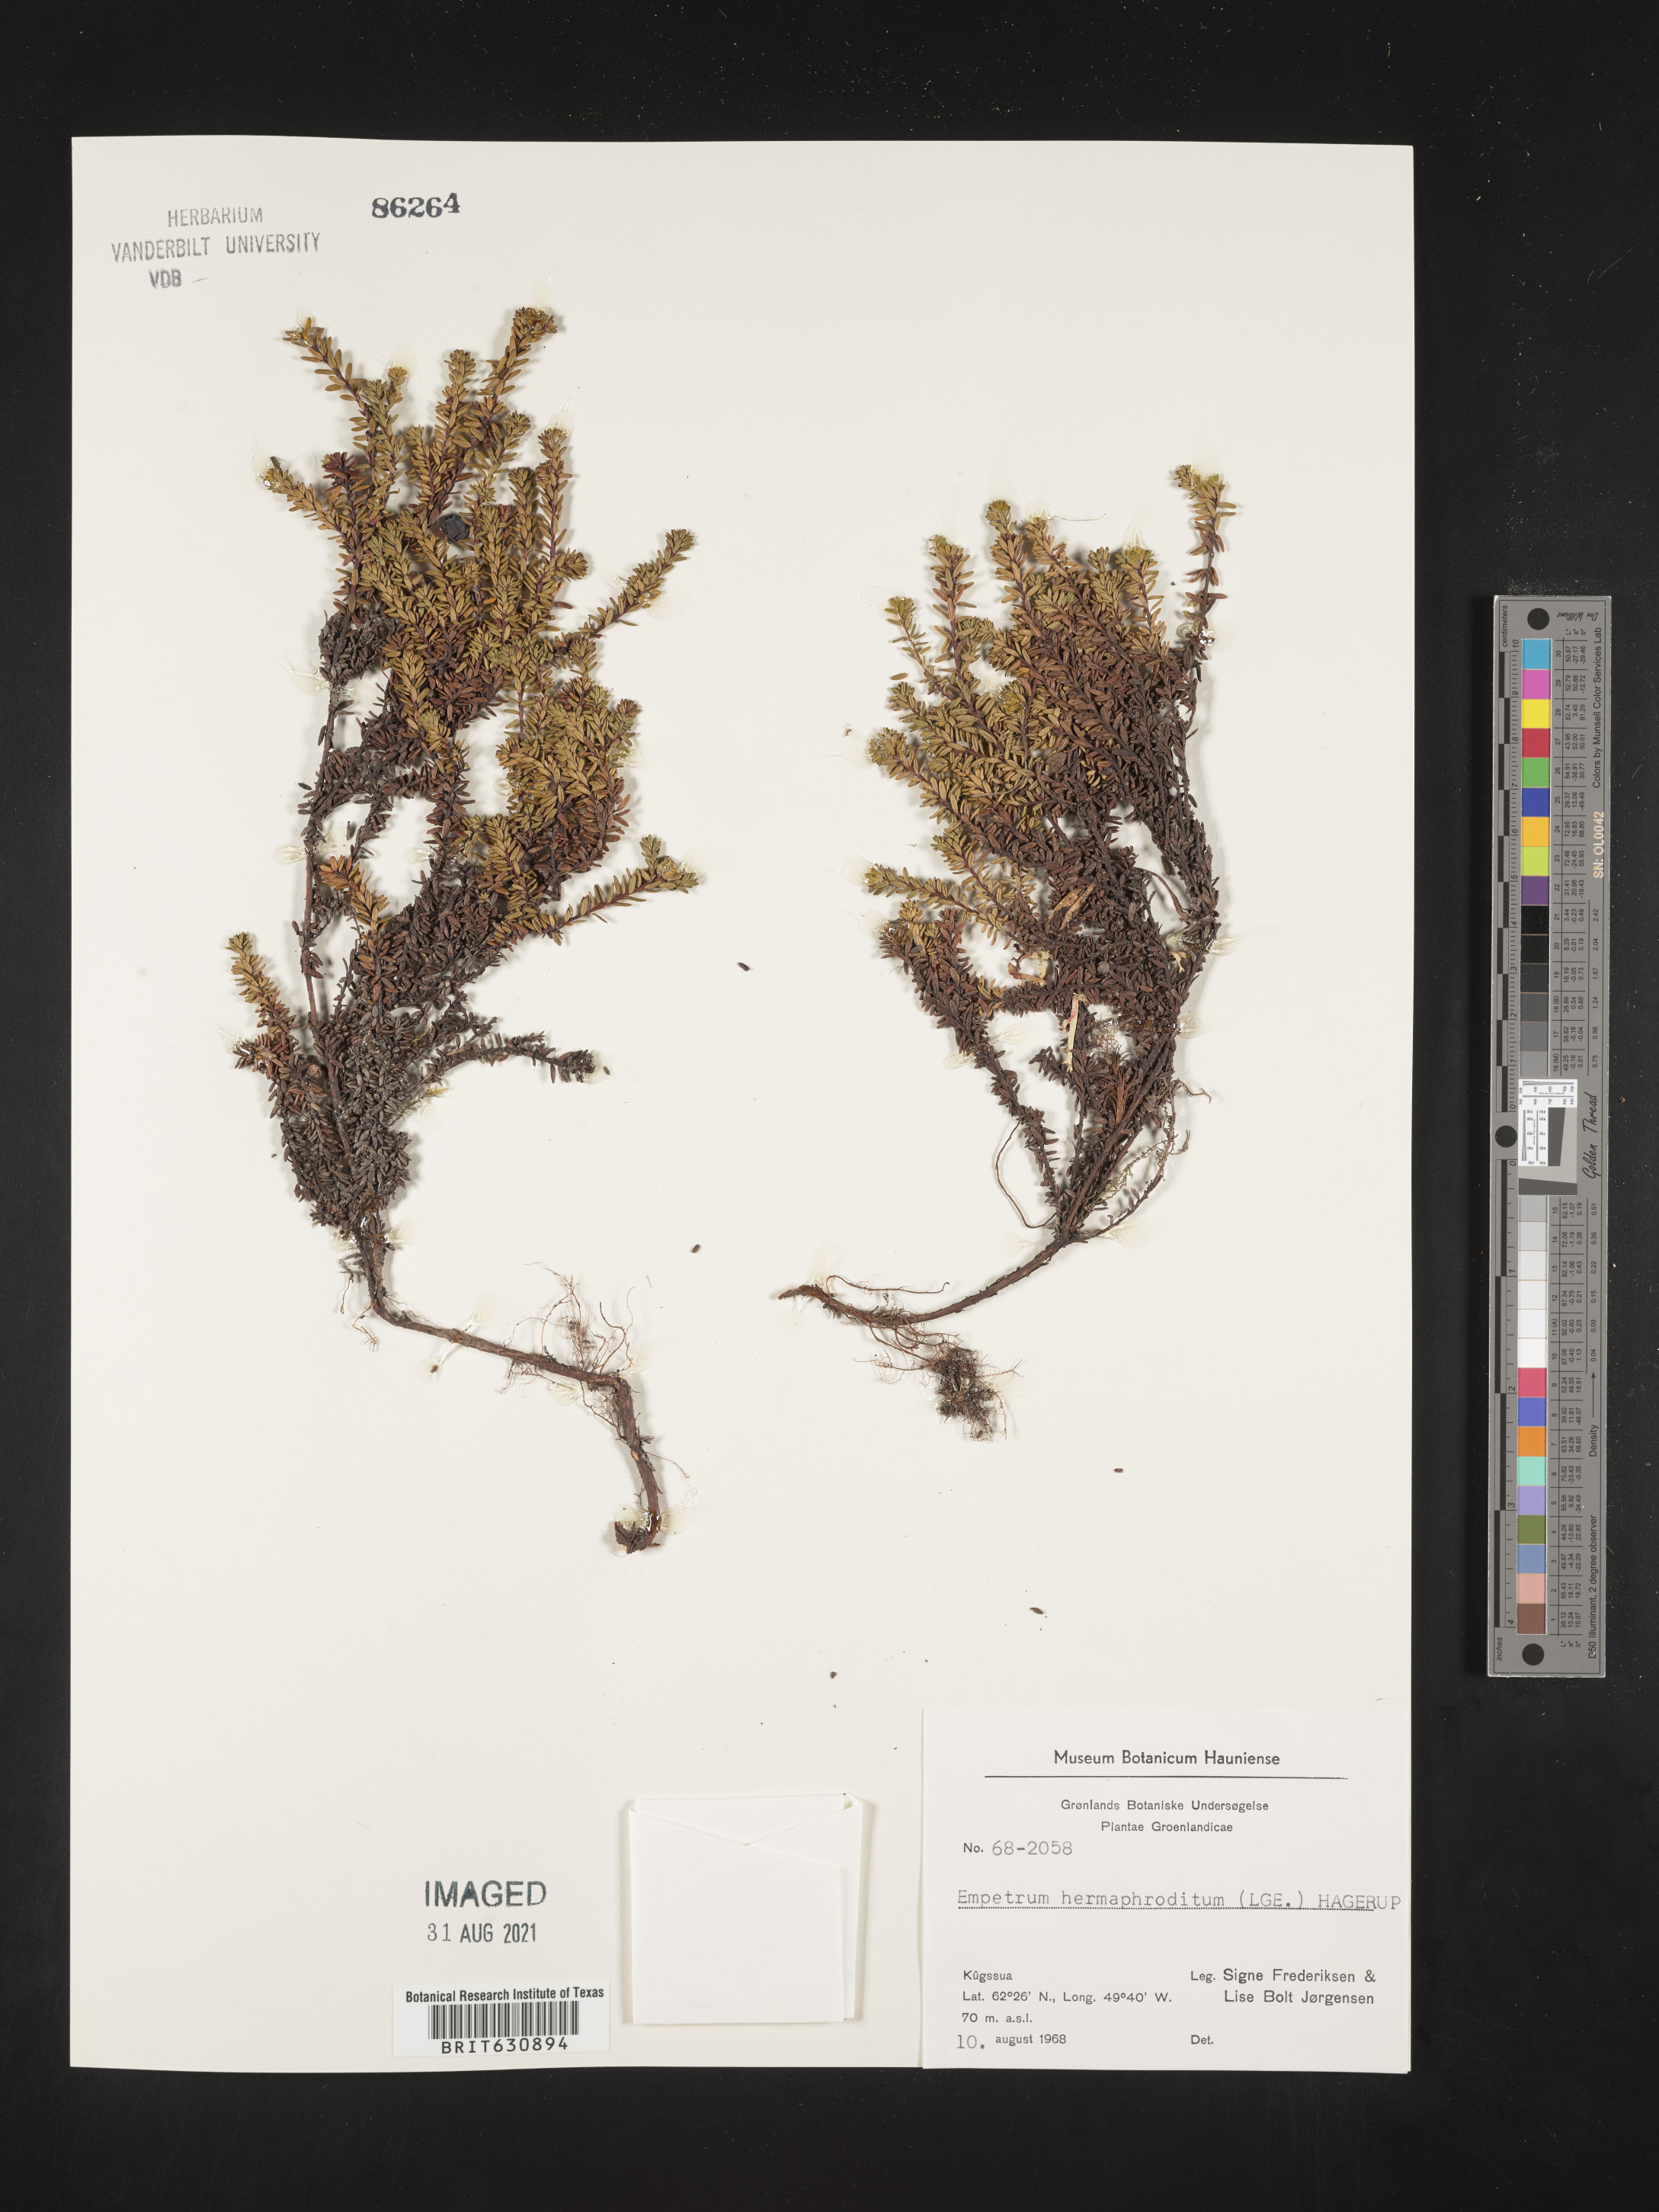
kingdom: Plantae
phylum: Tracheophyta
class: Magnoliopsida
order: Ericales
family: Ericaceae
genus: Empetrum
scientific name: Empetrum
